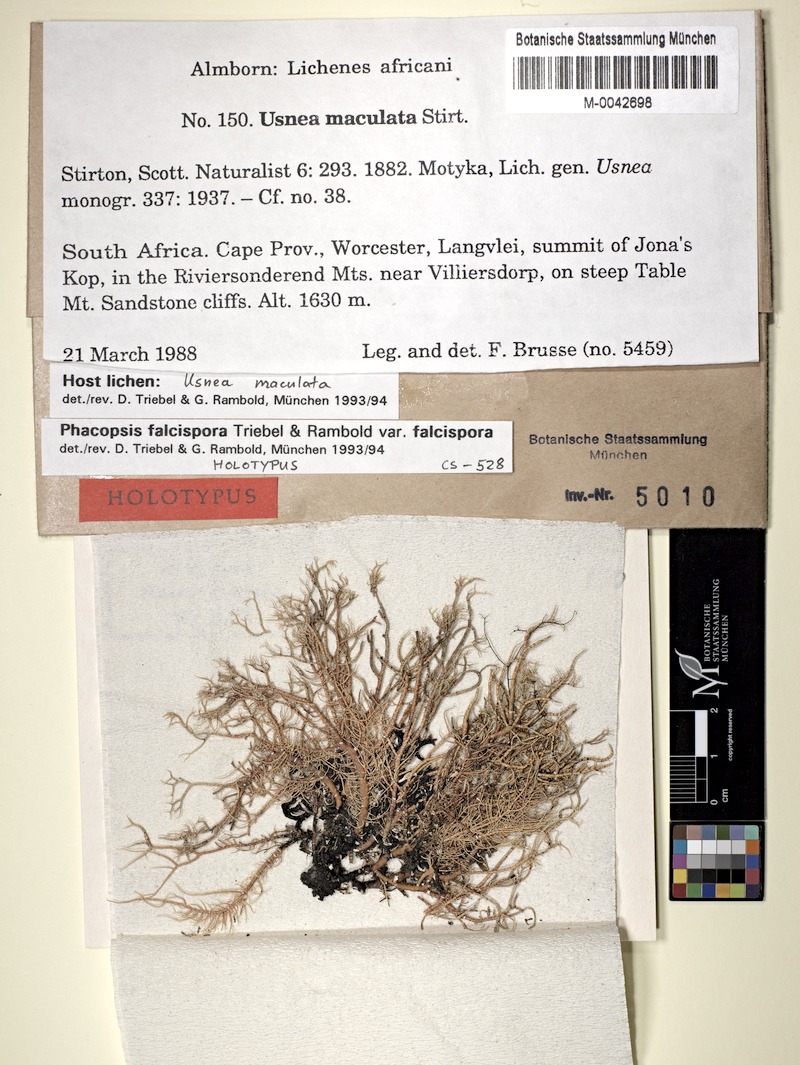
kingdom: Fungi
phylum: Ascomycota
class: Lecanoromycetes
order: Lecanorales
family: Parmeliaceae
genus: Nesolechia
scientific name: Nesolechia falcispora
